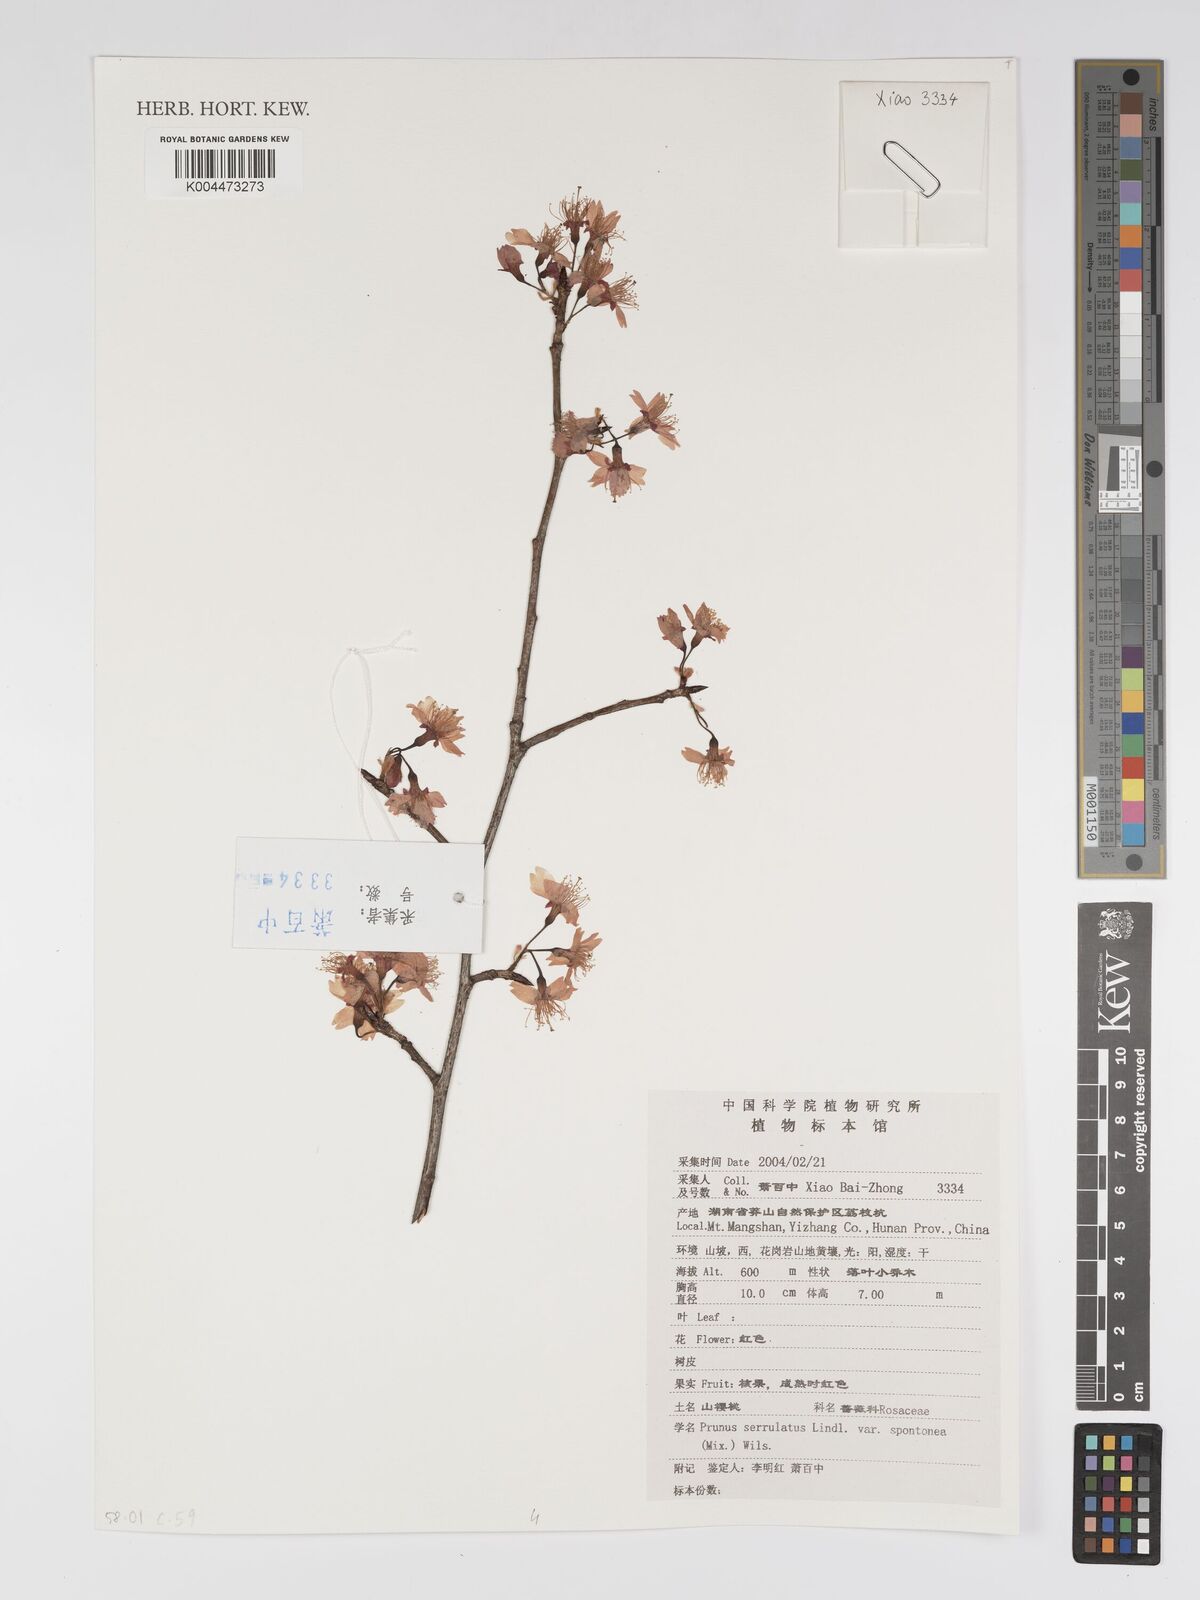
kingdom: Plantae
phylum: Tracheophyta
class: Magnoliopsida
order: Rosales
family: Rosaceae
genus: Prunus
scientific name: Prunus serrulata
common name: Japanese cherry
